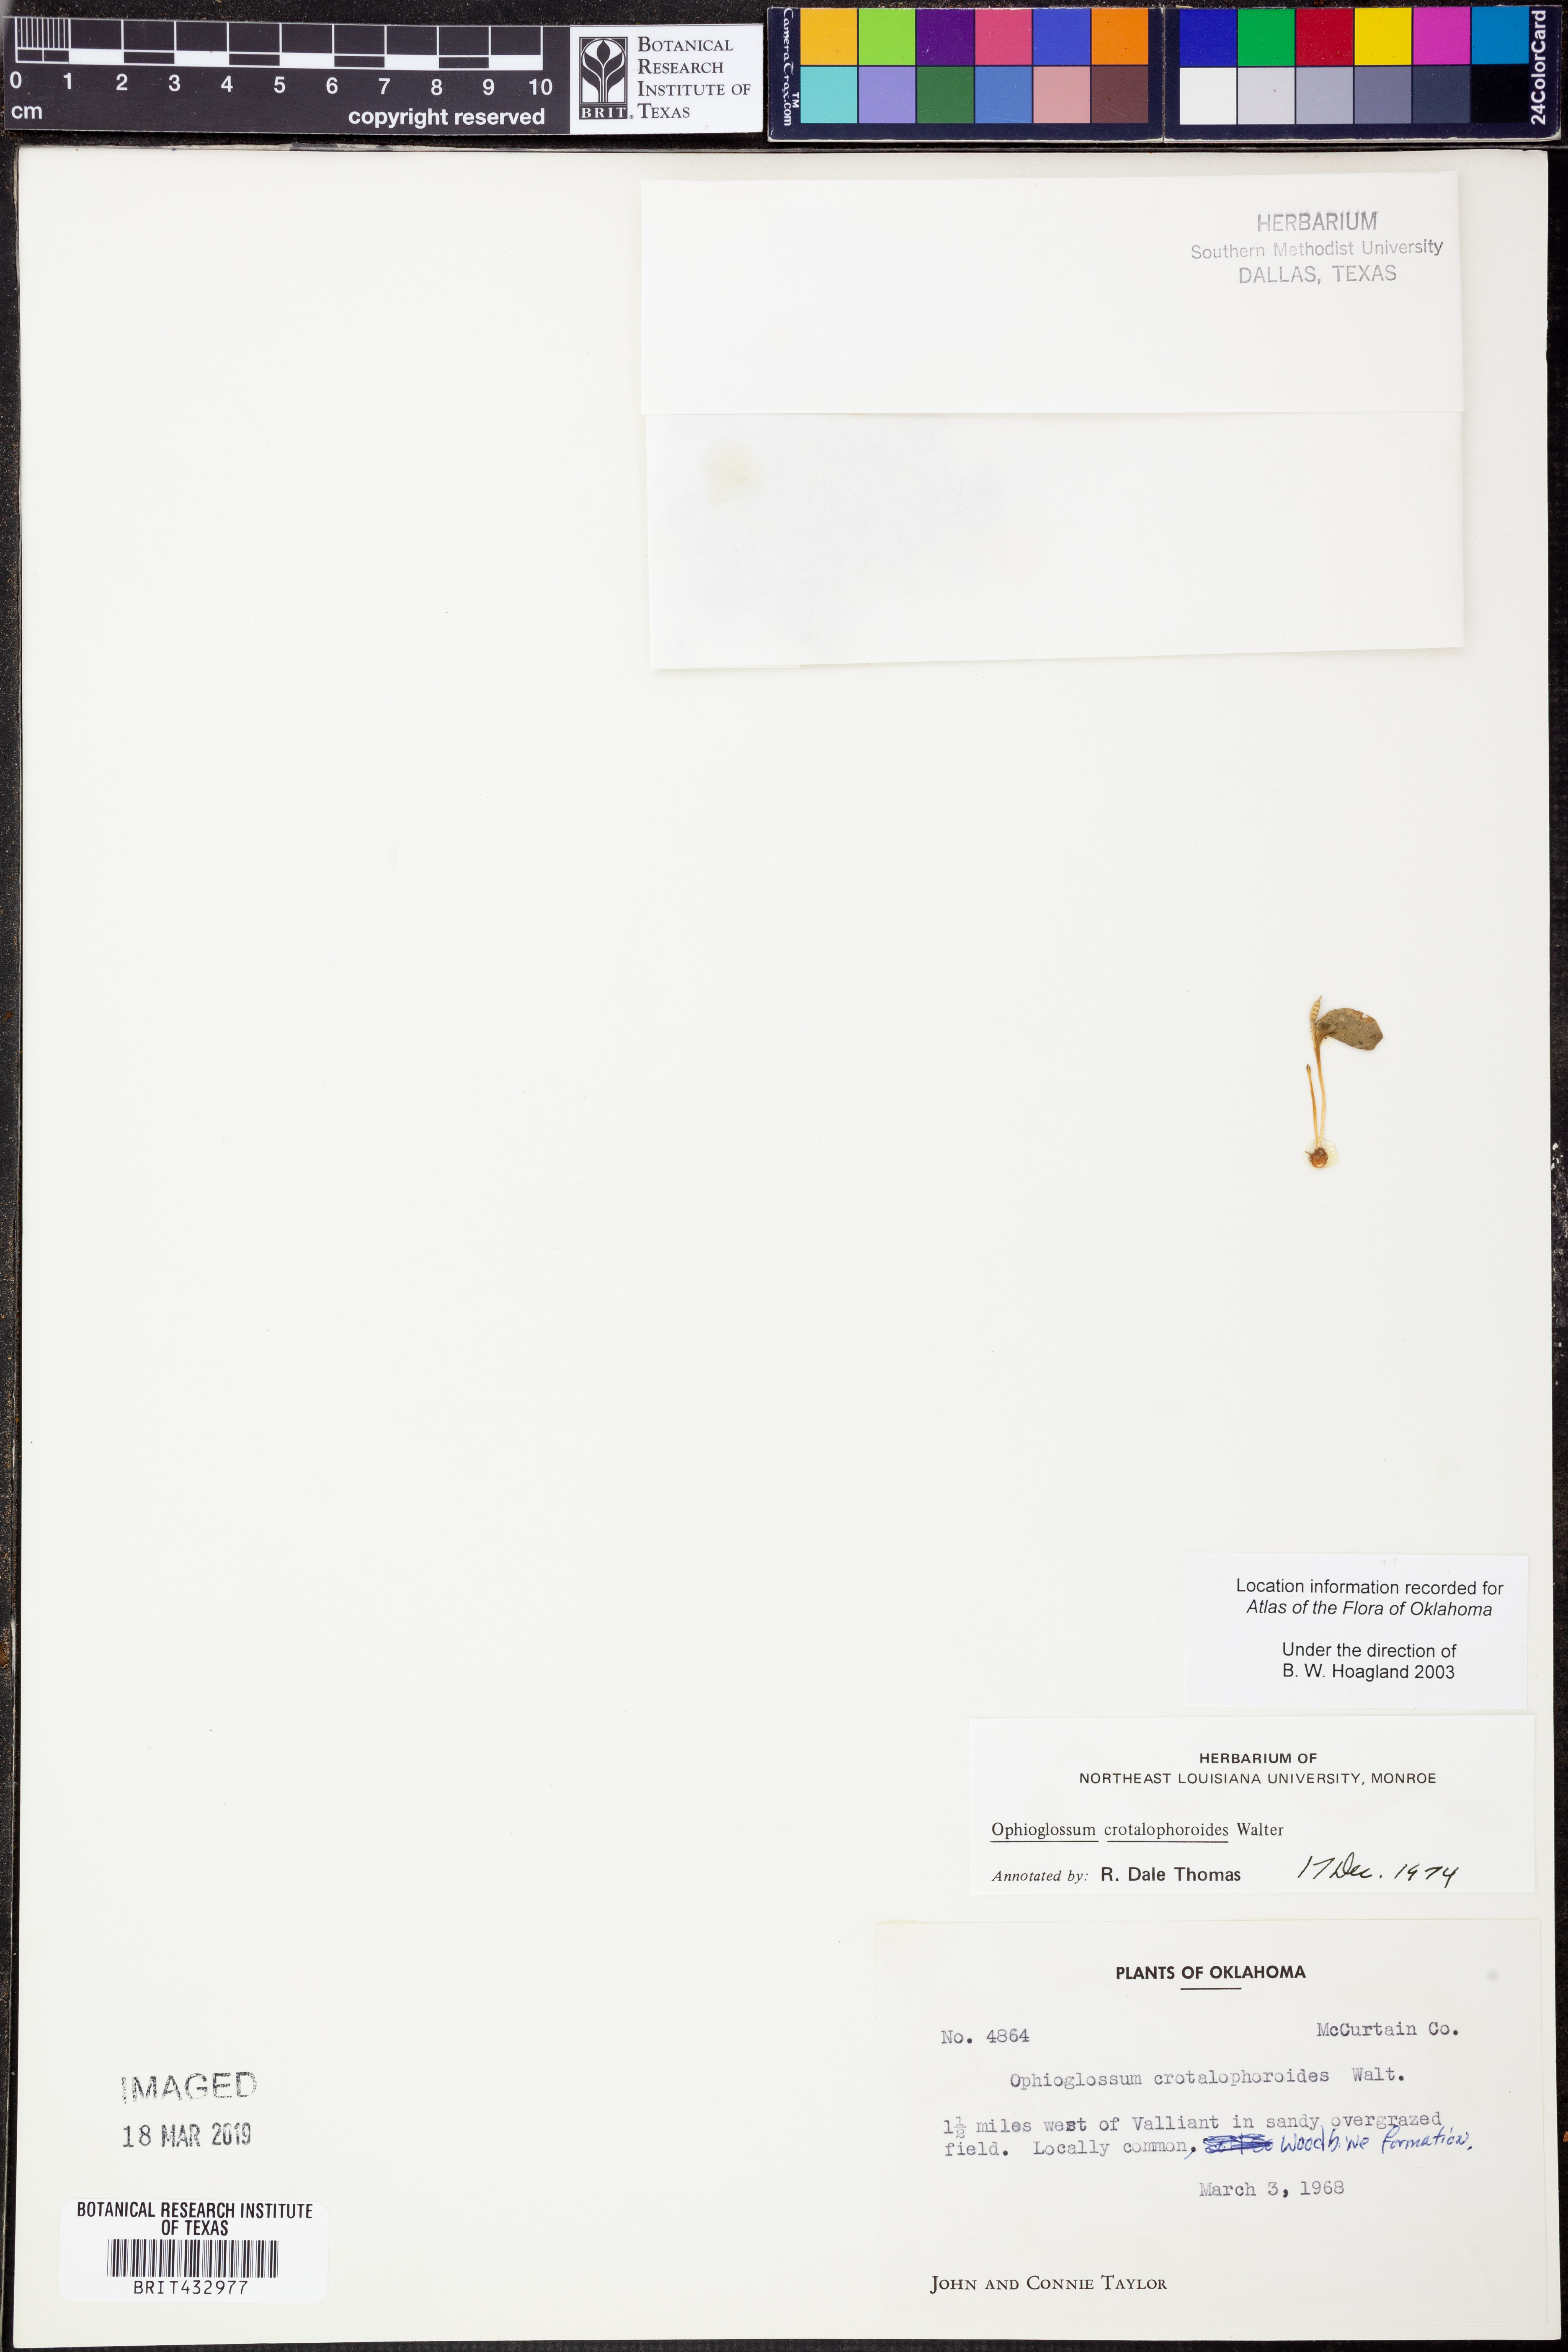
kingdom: Plantae
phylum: Tracheophyta
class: Polypodiopsida
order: Ophioglossales
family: Ophioglossaceae
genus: Ophioglossum
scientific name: Ophioglossum crotalophoroides
